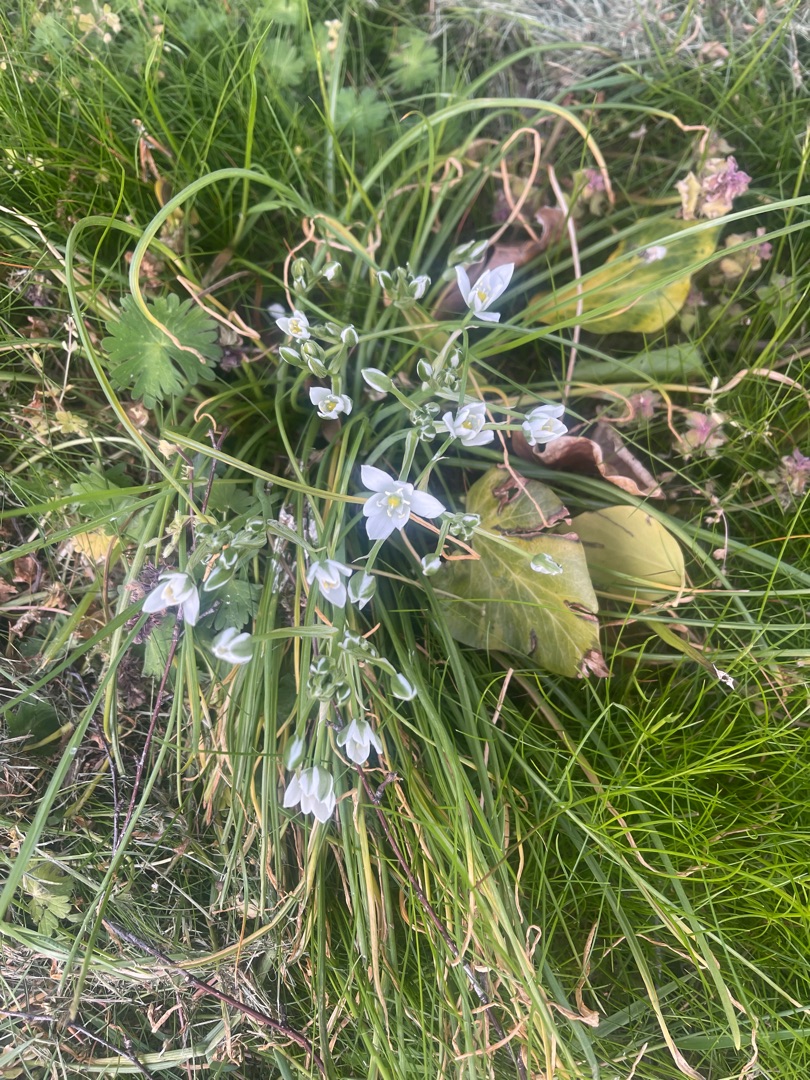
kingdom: Plantae
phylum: Tracheophyta
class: Liliopsida
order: Asparagales
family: Asparagaceae
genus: Ornithogalum
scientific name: Ornithogalum umbellatum
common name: Kost-fuglemælk
